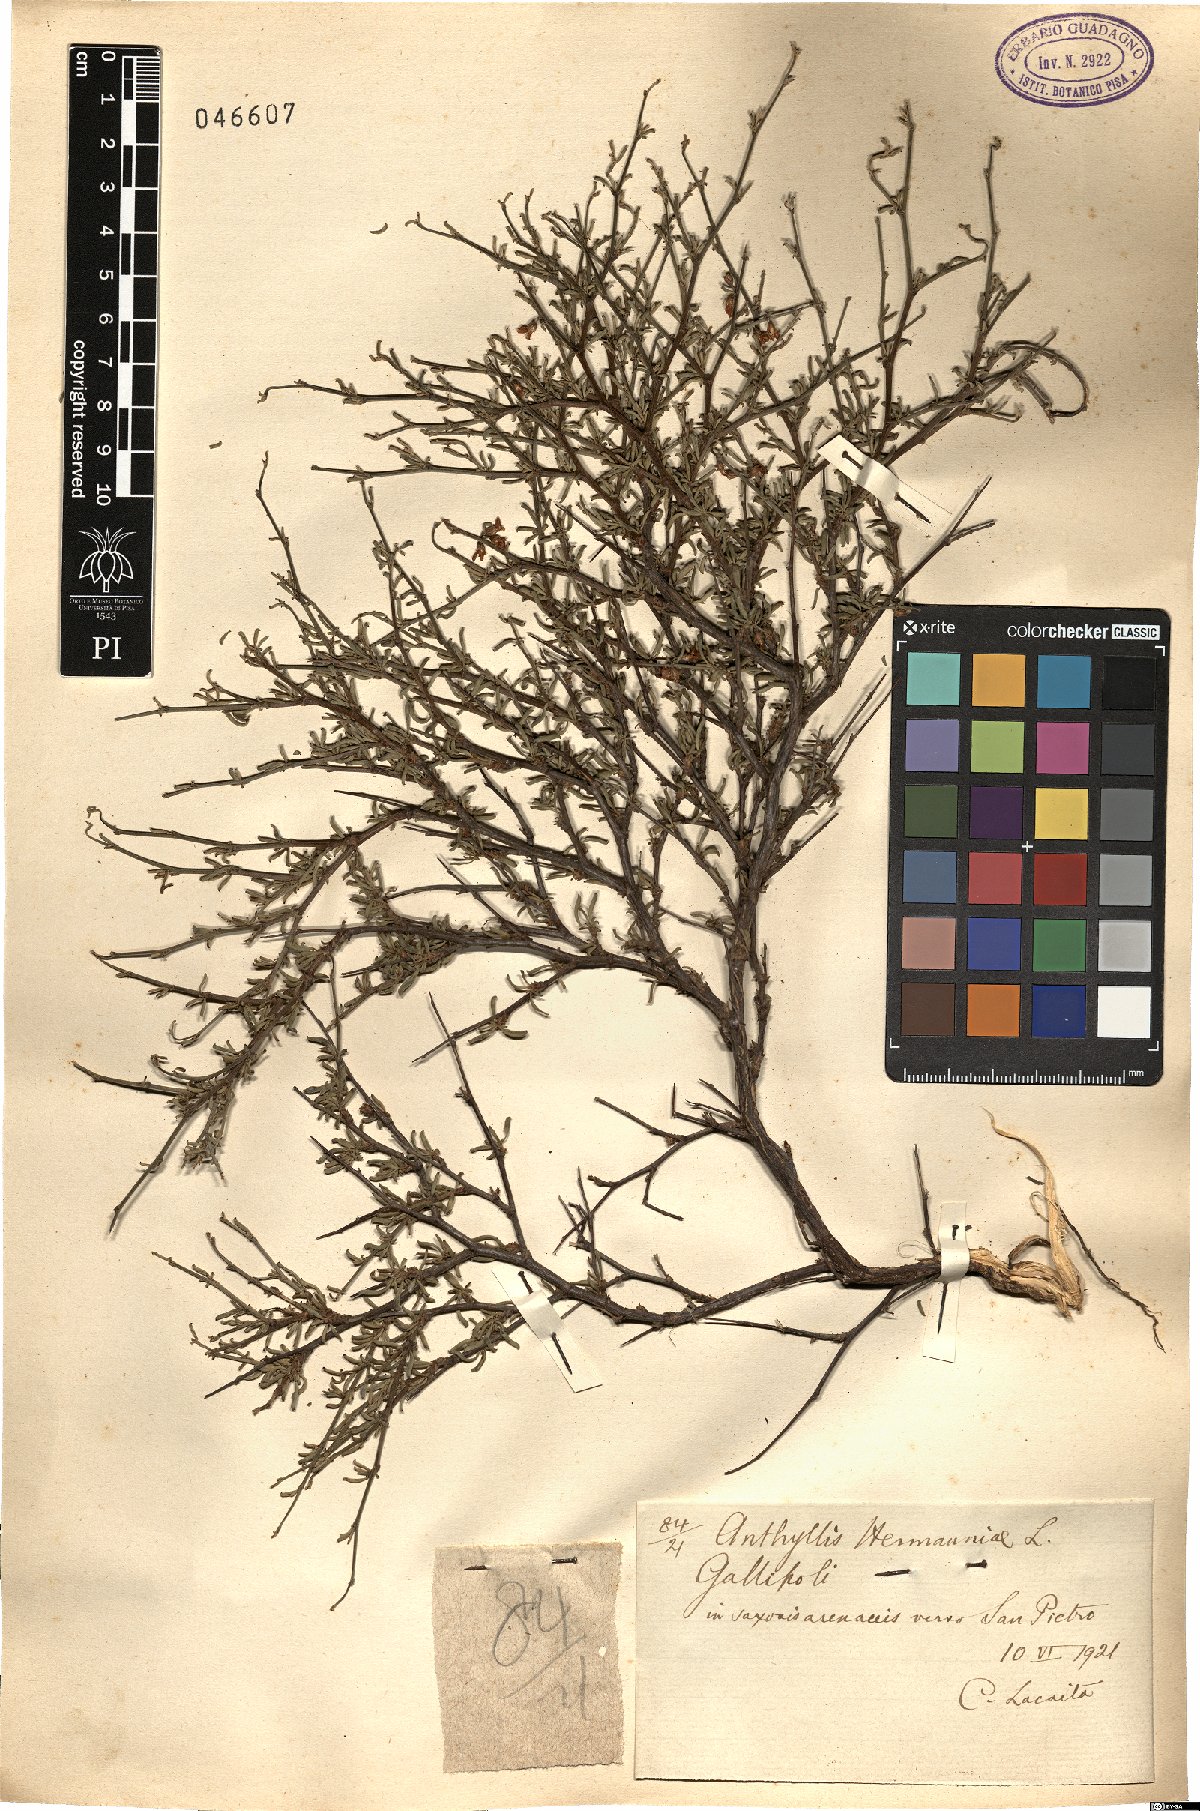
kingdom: Plantae
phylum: Tracheophyta
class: Magnoliopsida
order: Fabales
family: Fabaceae
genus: Anthyllis
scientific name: Anthyllis hermanniae
